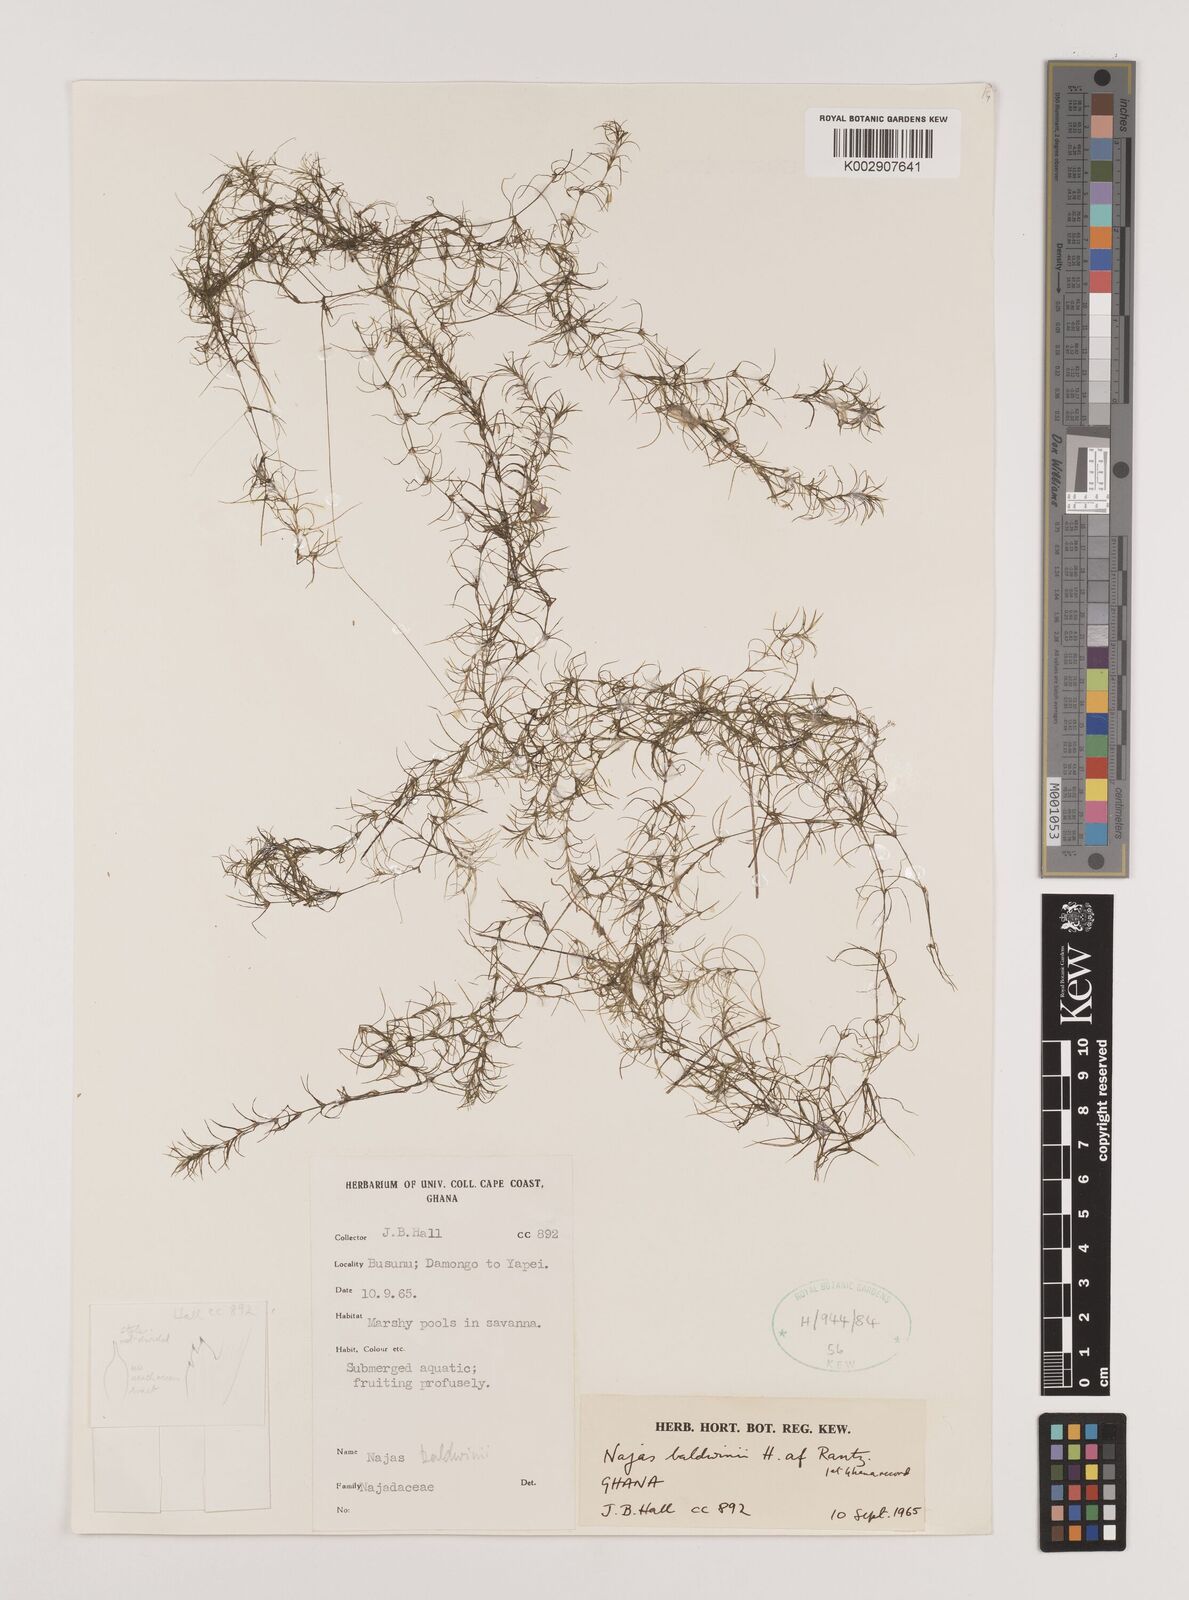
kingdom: Plantae
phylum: Tracheophyta
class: Liliopsida
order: Alismatales
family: Hydrocharitaceae
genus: Najas
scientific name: Najas baldwinii
